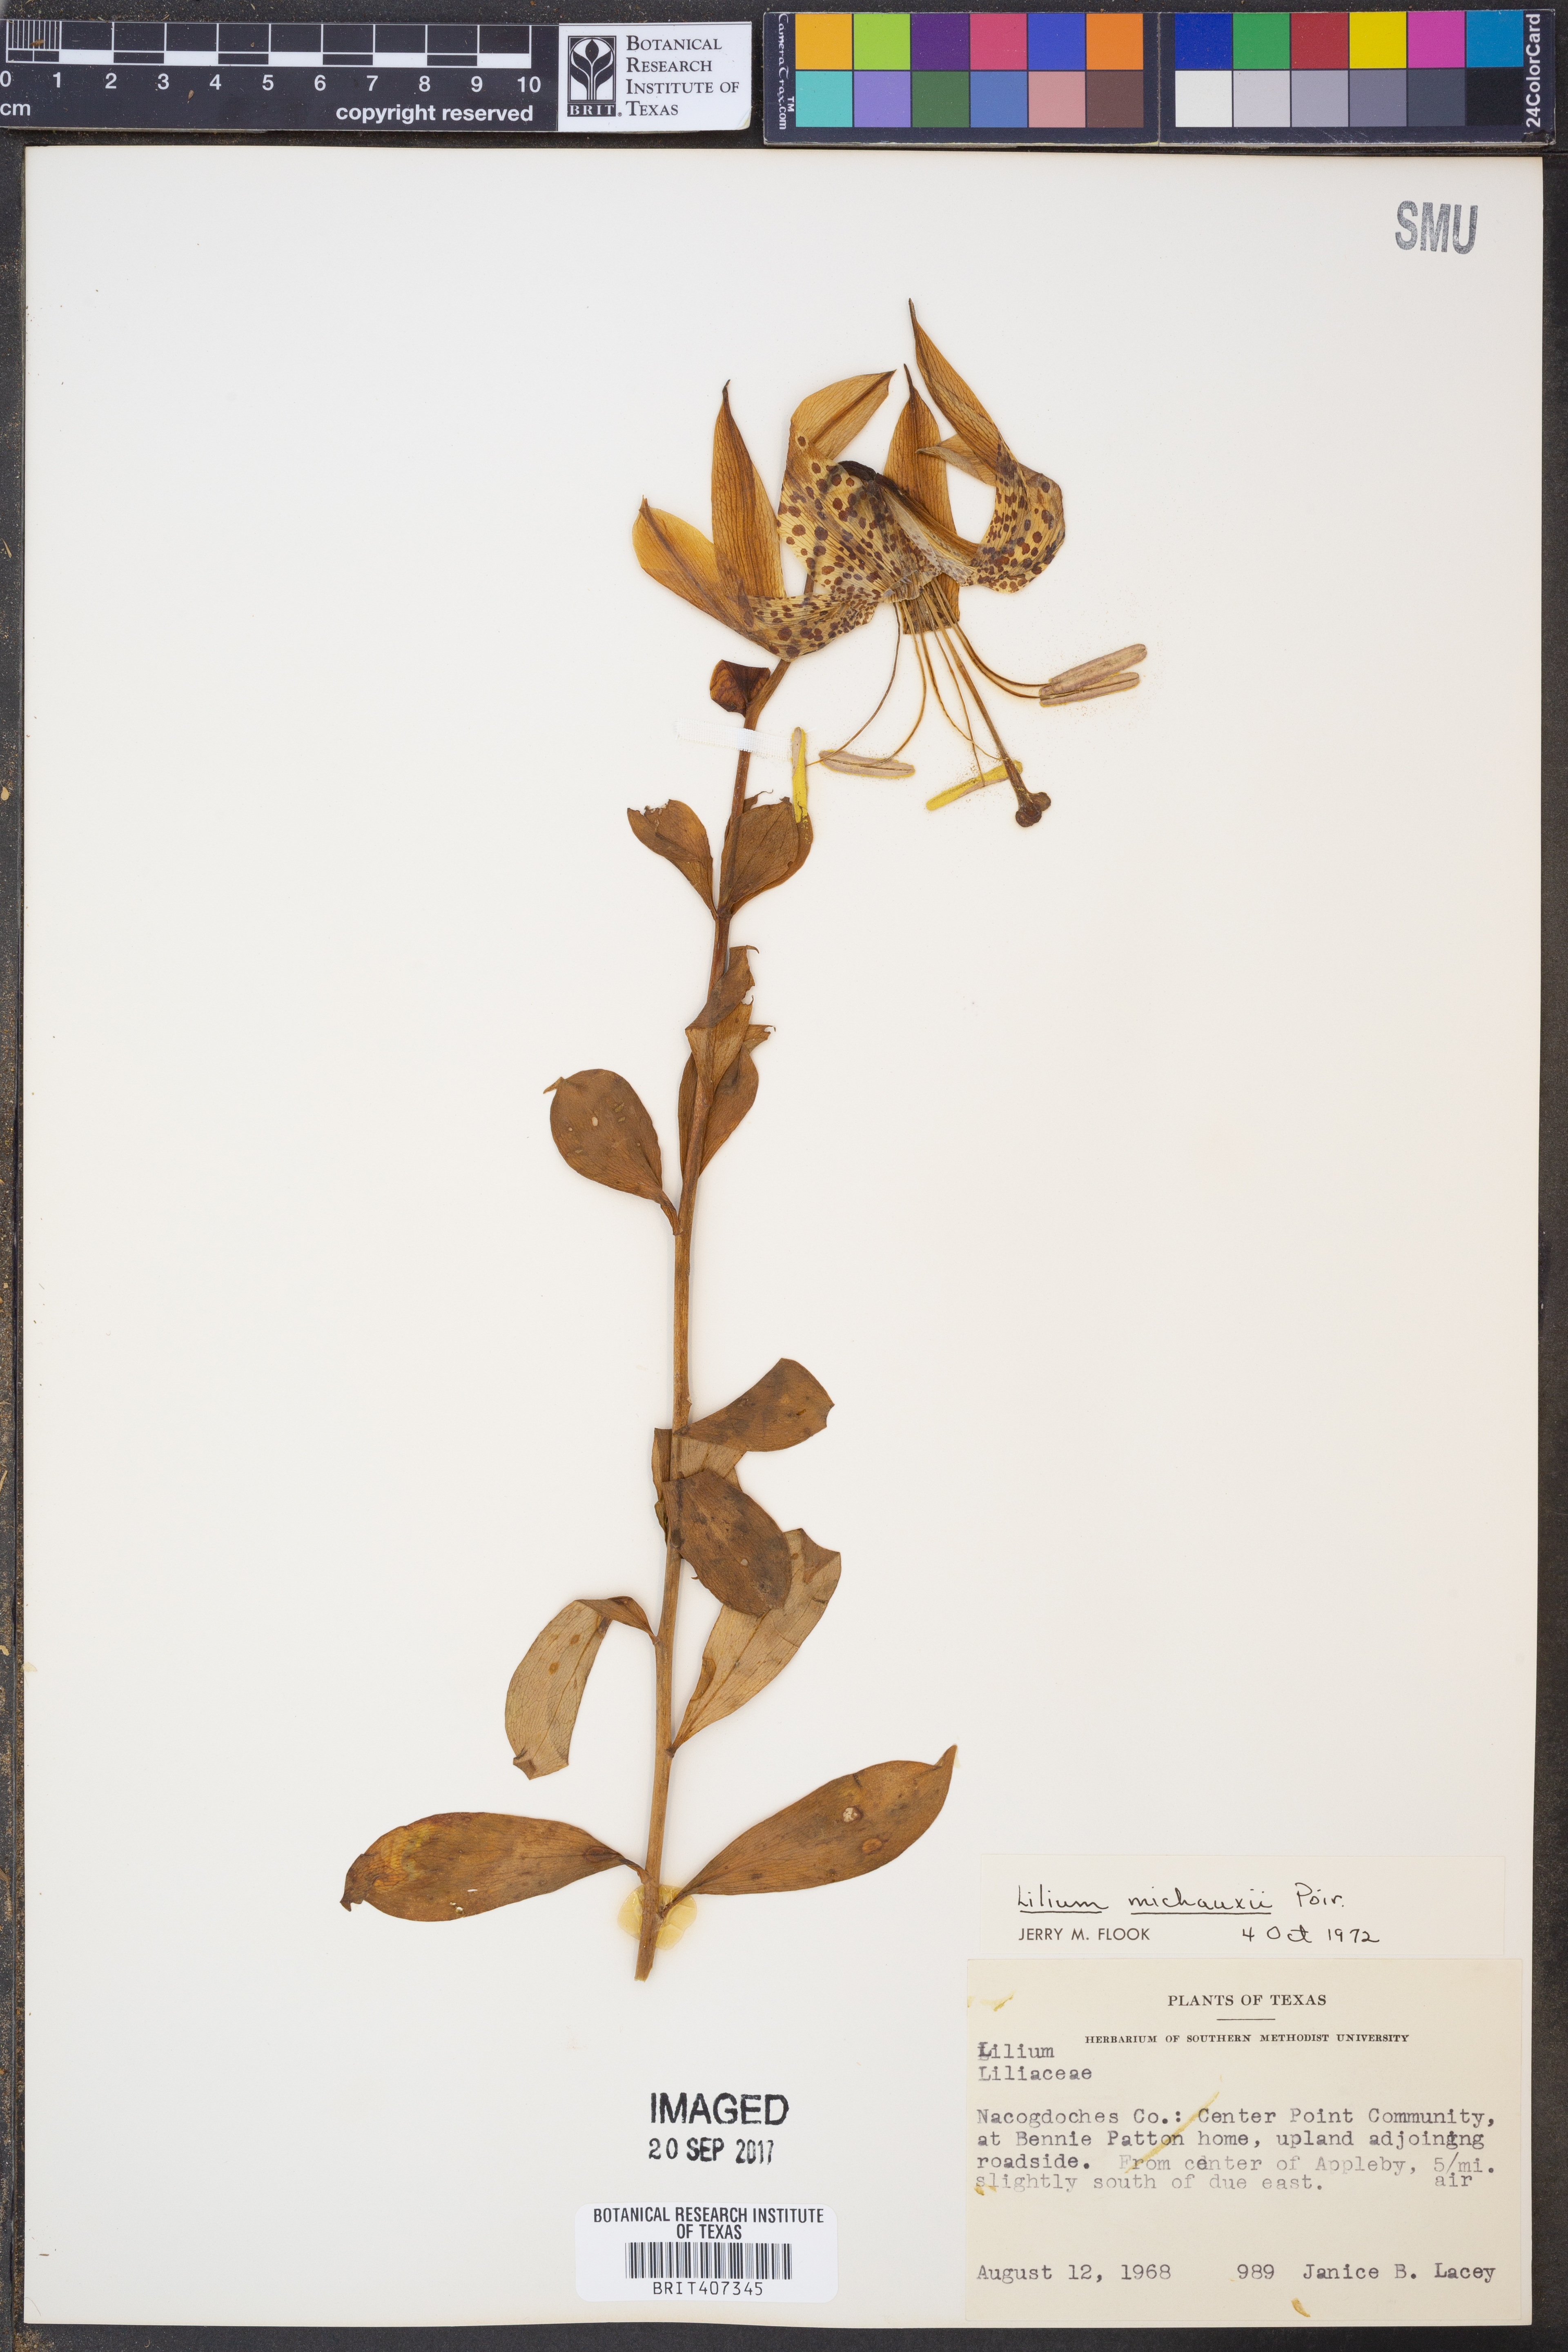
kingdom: Plantae
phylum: Tracheophyta
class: Liliopsida
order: Liliales
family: Liliaceae
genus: Lilium
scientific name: Lilium michauxii
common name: Carolina lily
